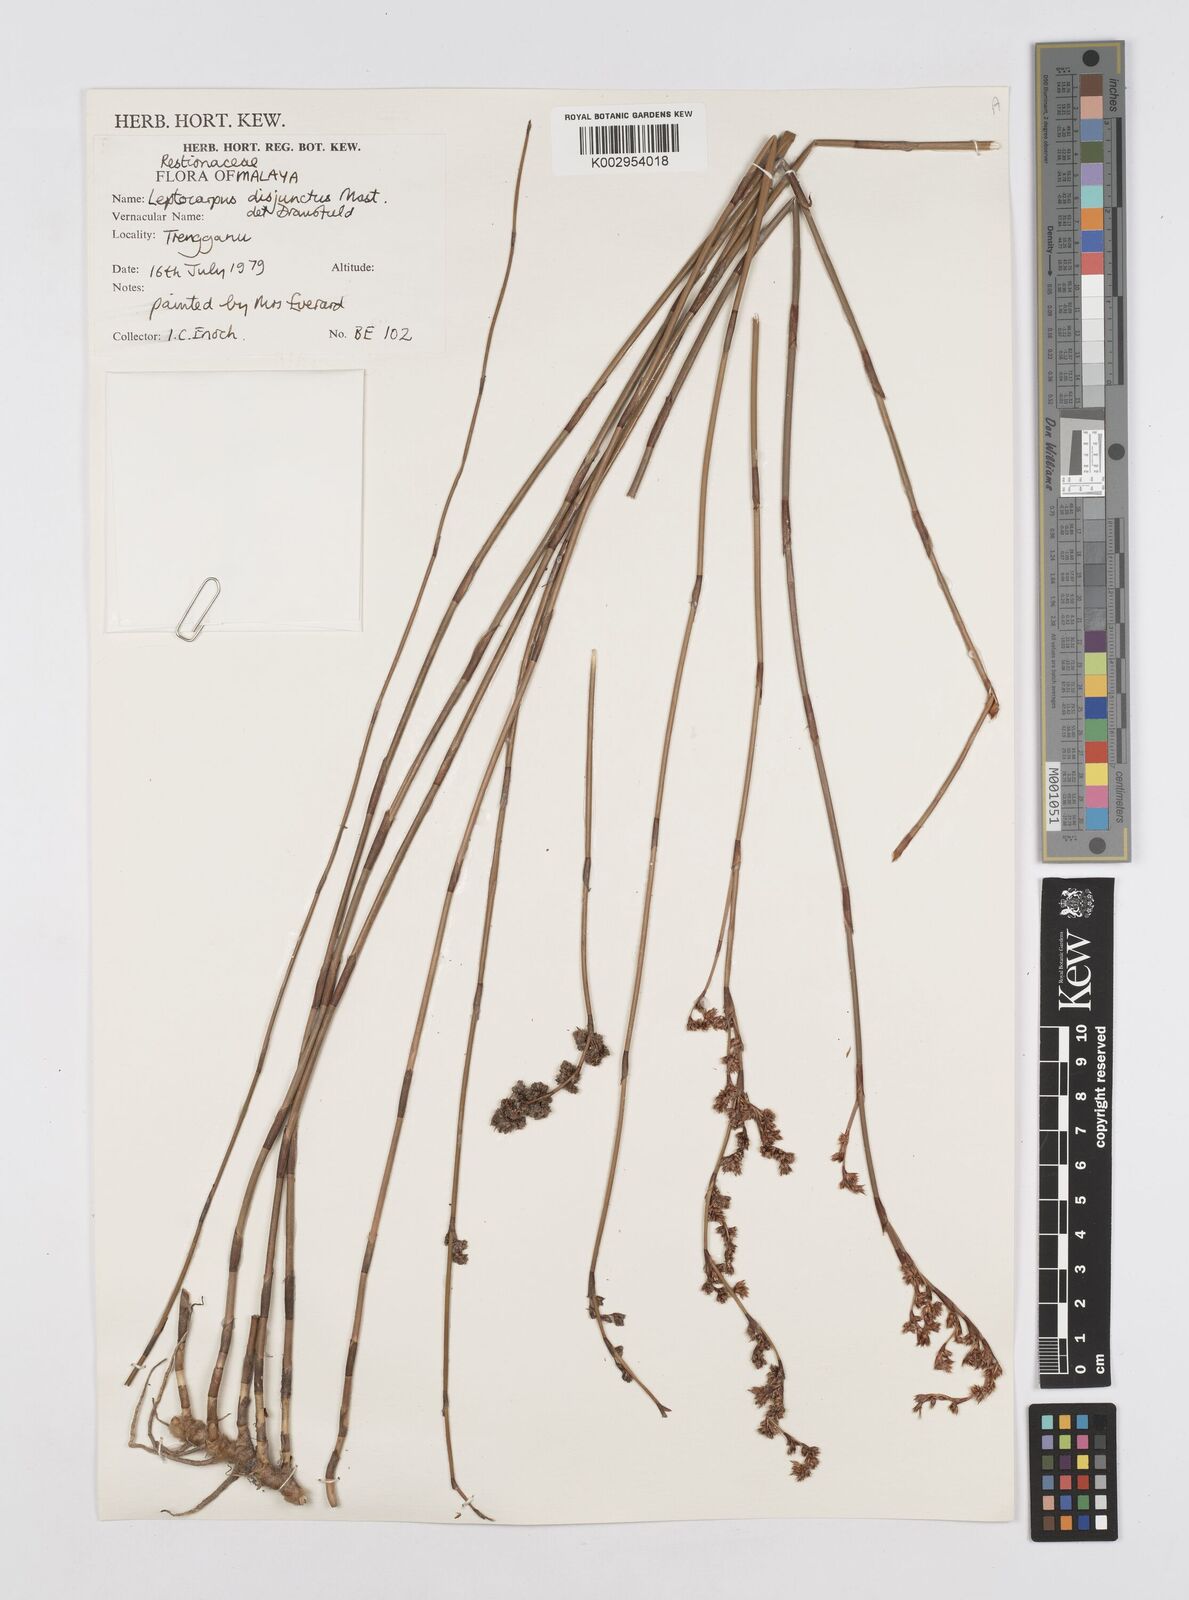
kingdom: Plantae
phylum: Tracheophyta
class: Liliopsida
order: Poales
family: Restionaceae
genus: Dapsilanthus
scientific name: Dapsilanthus disjunctus
